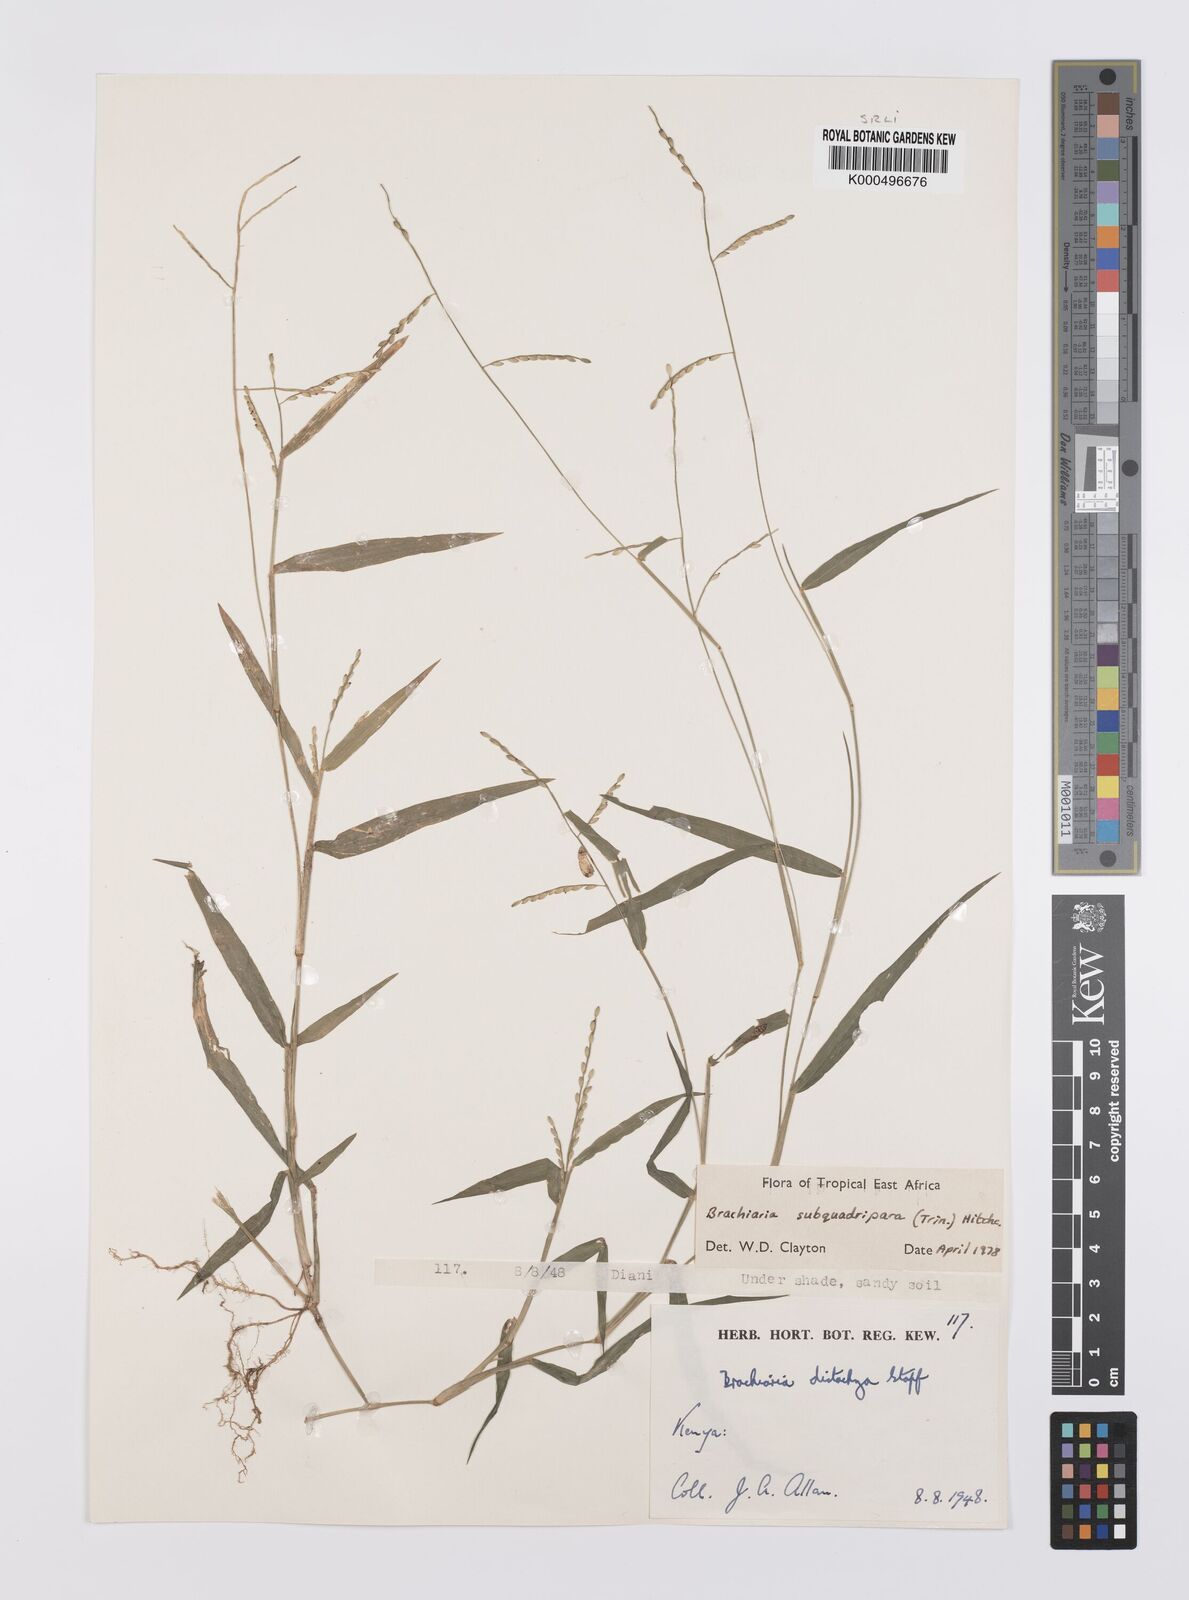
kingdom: Plantae
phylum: Tracheophyta
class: Liliopsida
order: Poales
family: Poaceae
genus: Urochloa
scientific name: Urochloa subquadripara
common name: Armgrass millet
